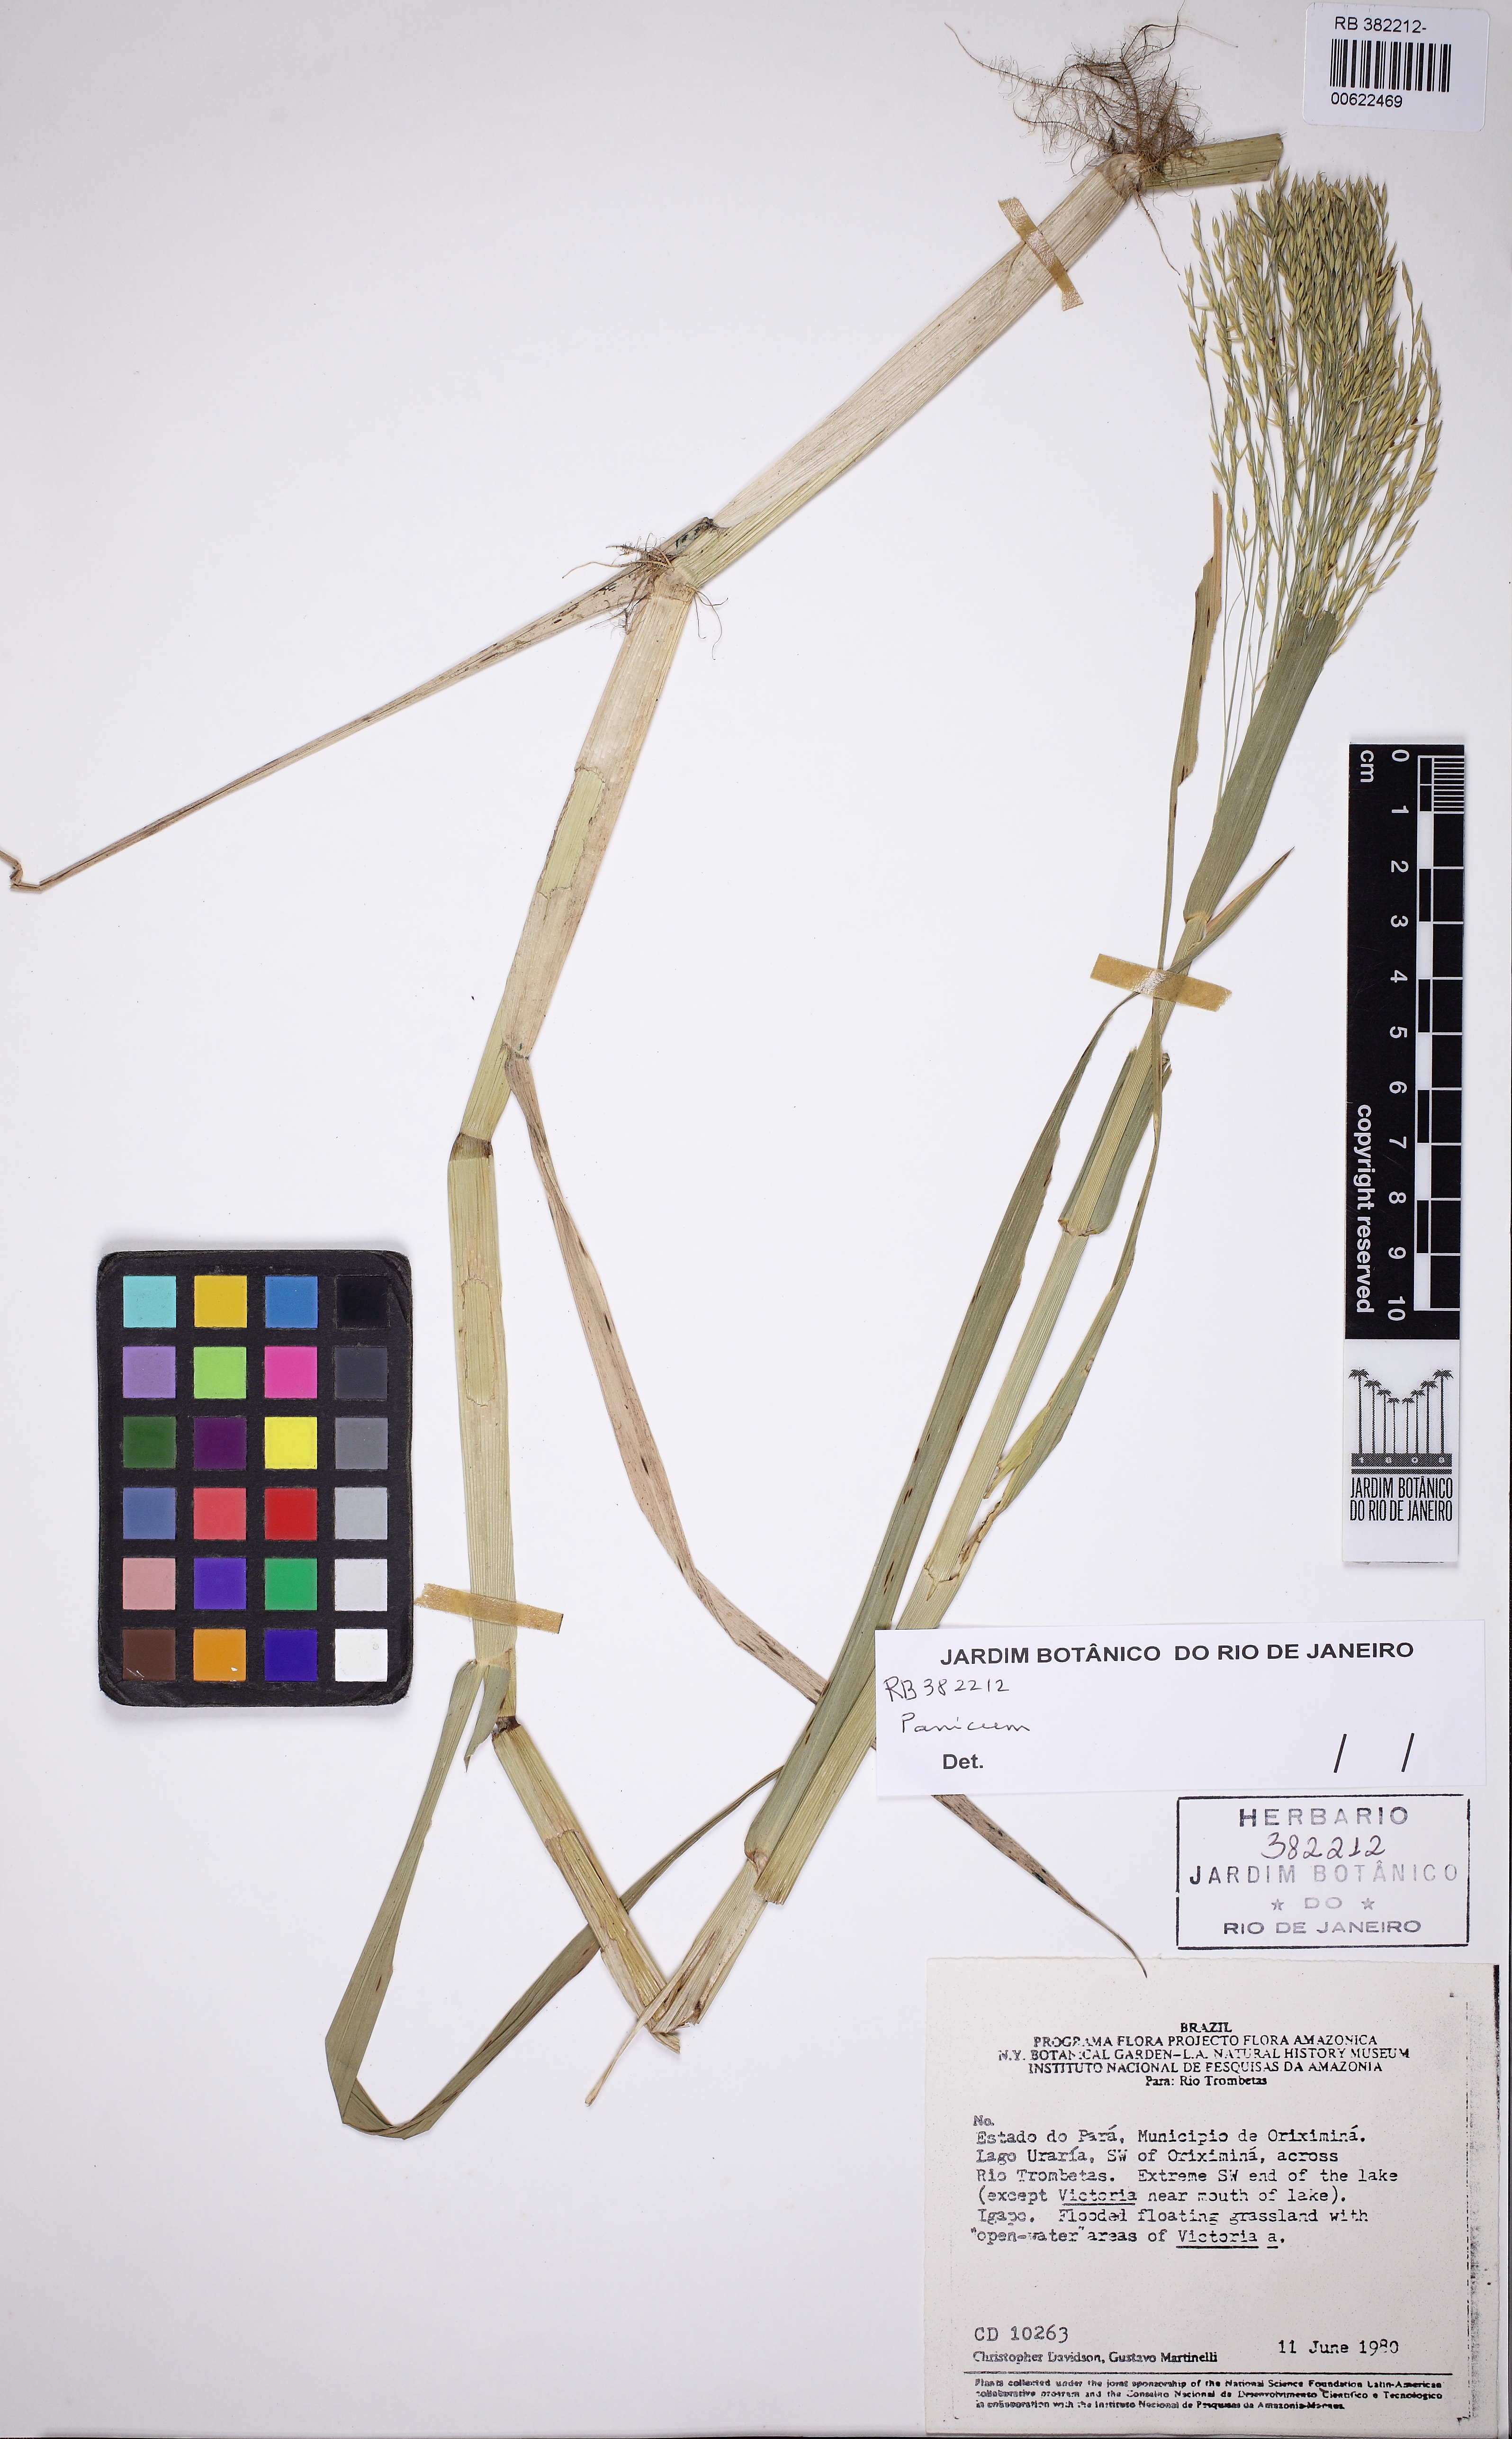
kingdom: Plantae
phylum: Tracheophyta
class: Liliopsida
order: Poales
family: Poaceae
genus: Hymenachne
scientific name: Hymenachne grandis
